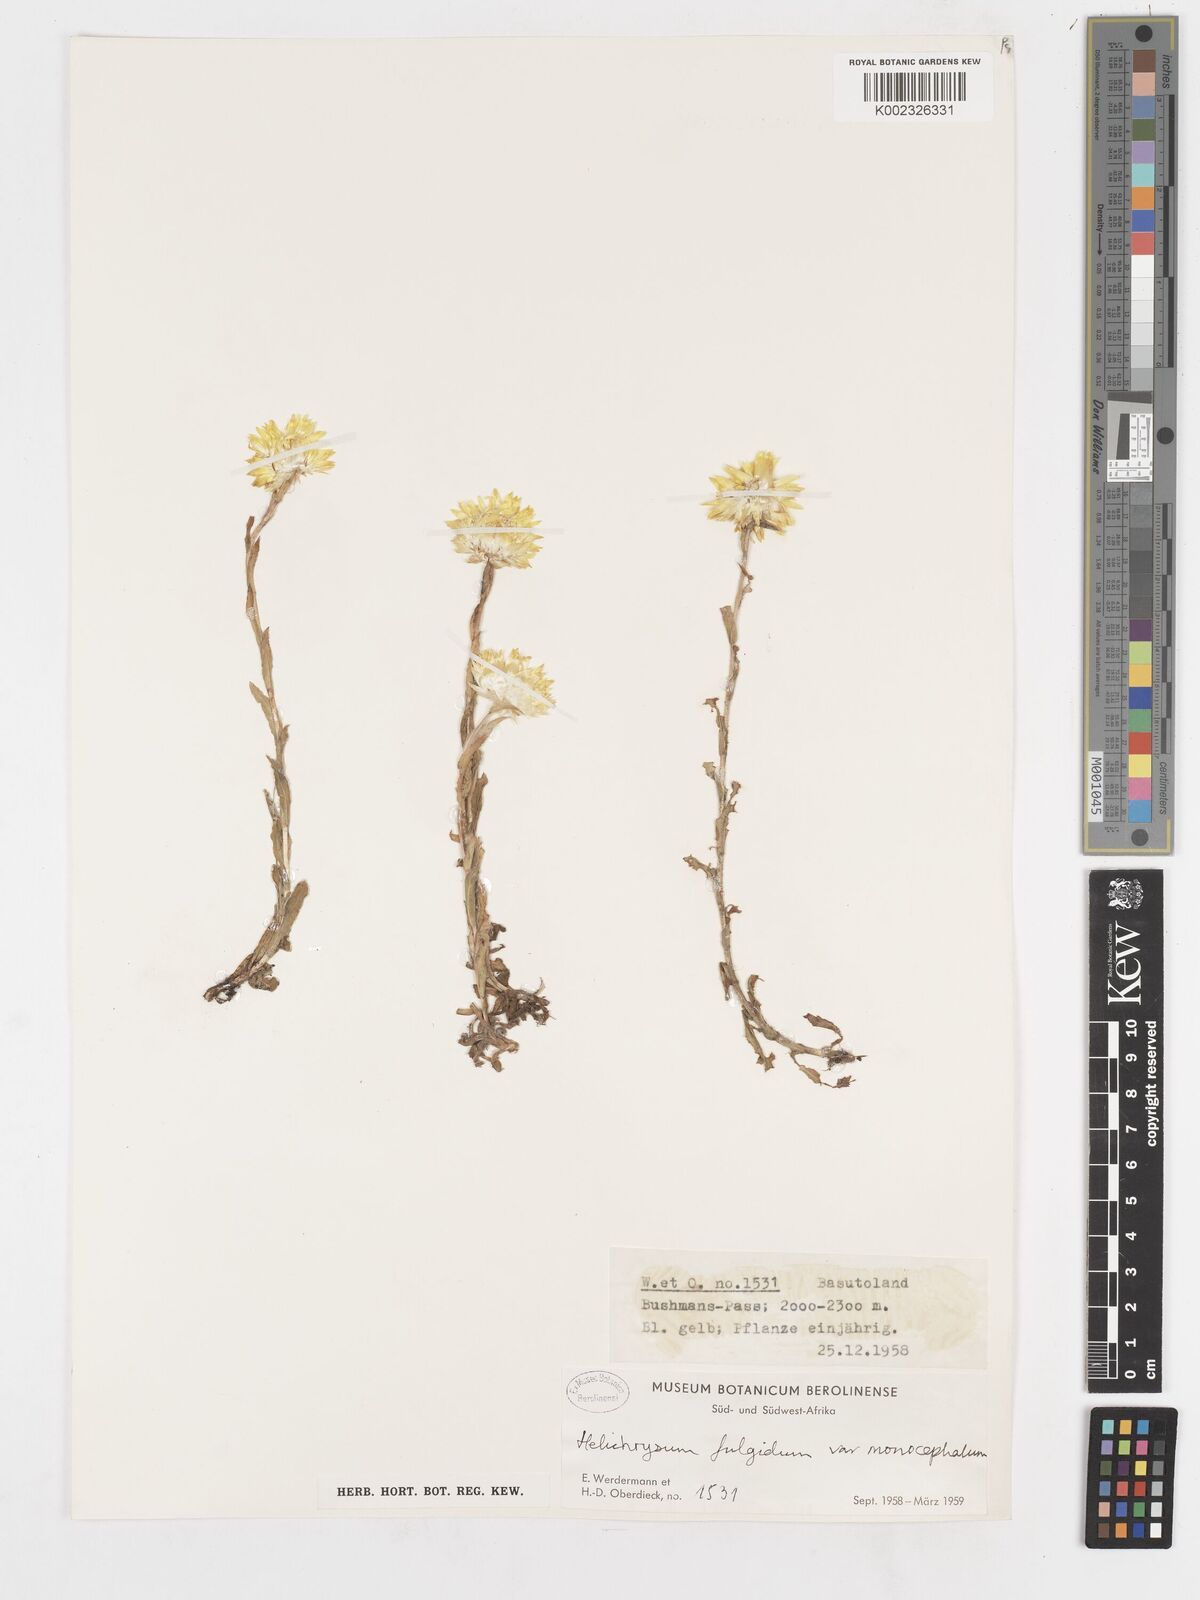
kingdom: Plantae
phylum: Tracheophyta
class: Magnoliopsida
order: Asterales
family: Asteraceae
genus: Helichrysum
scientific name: Helichrysum aureum
